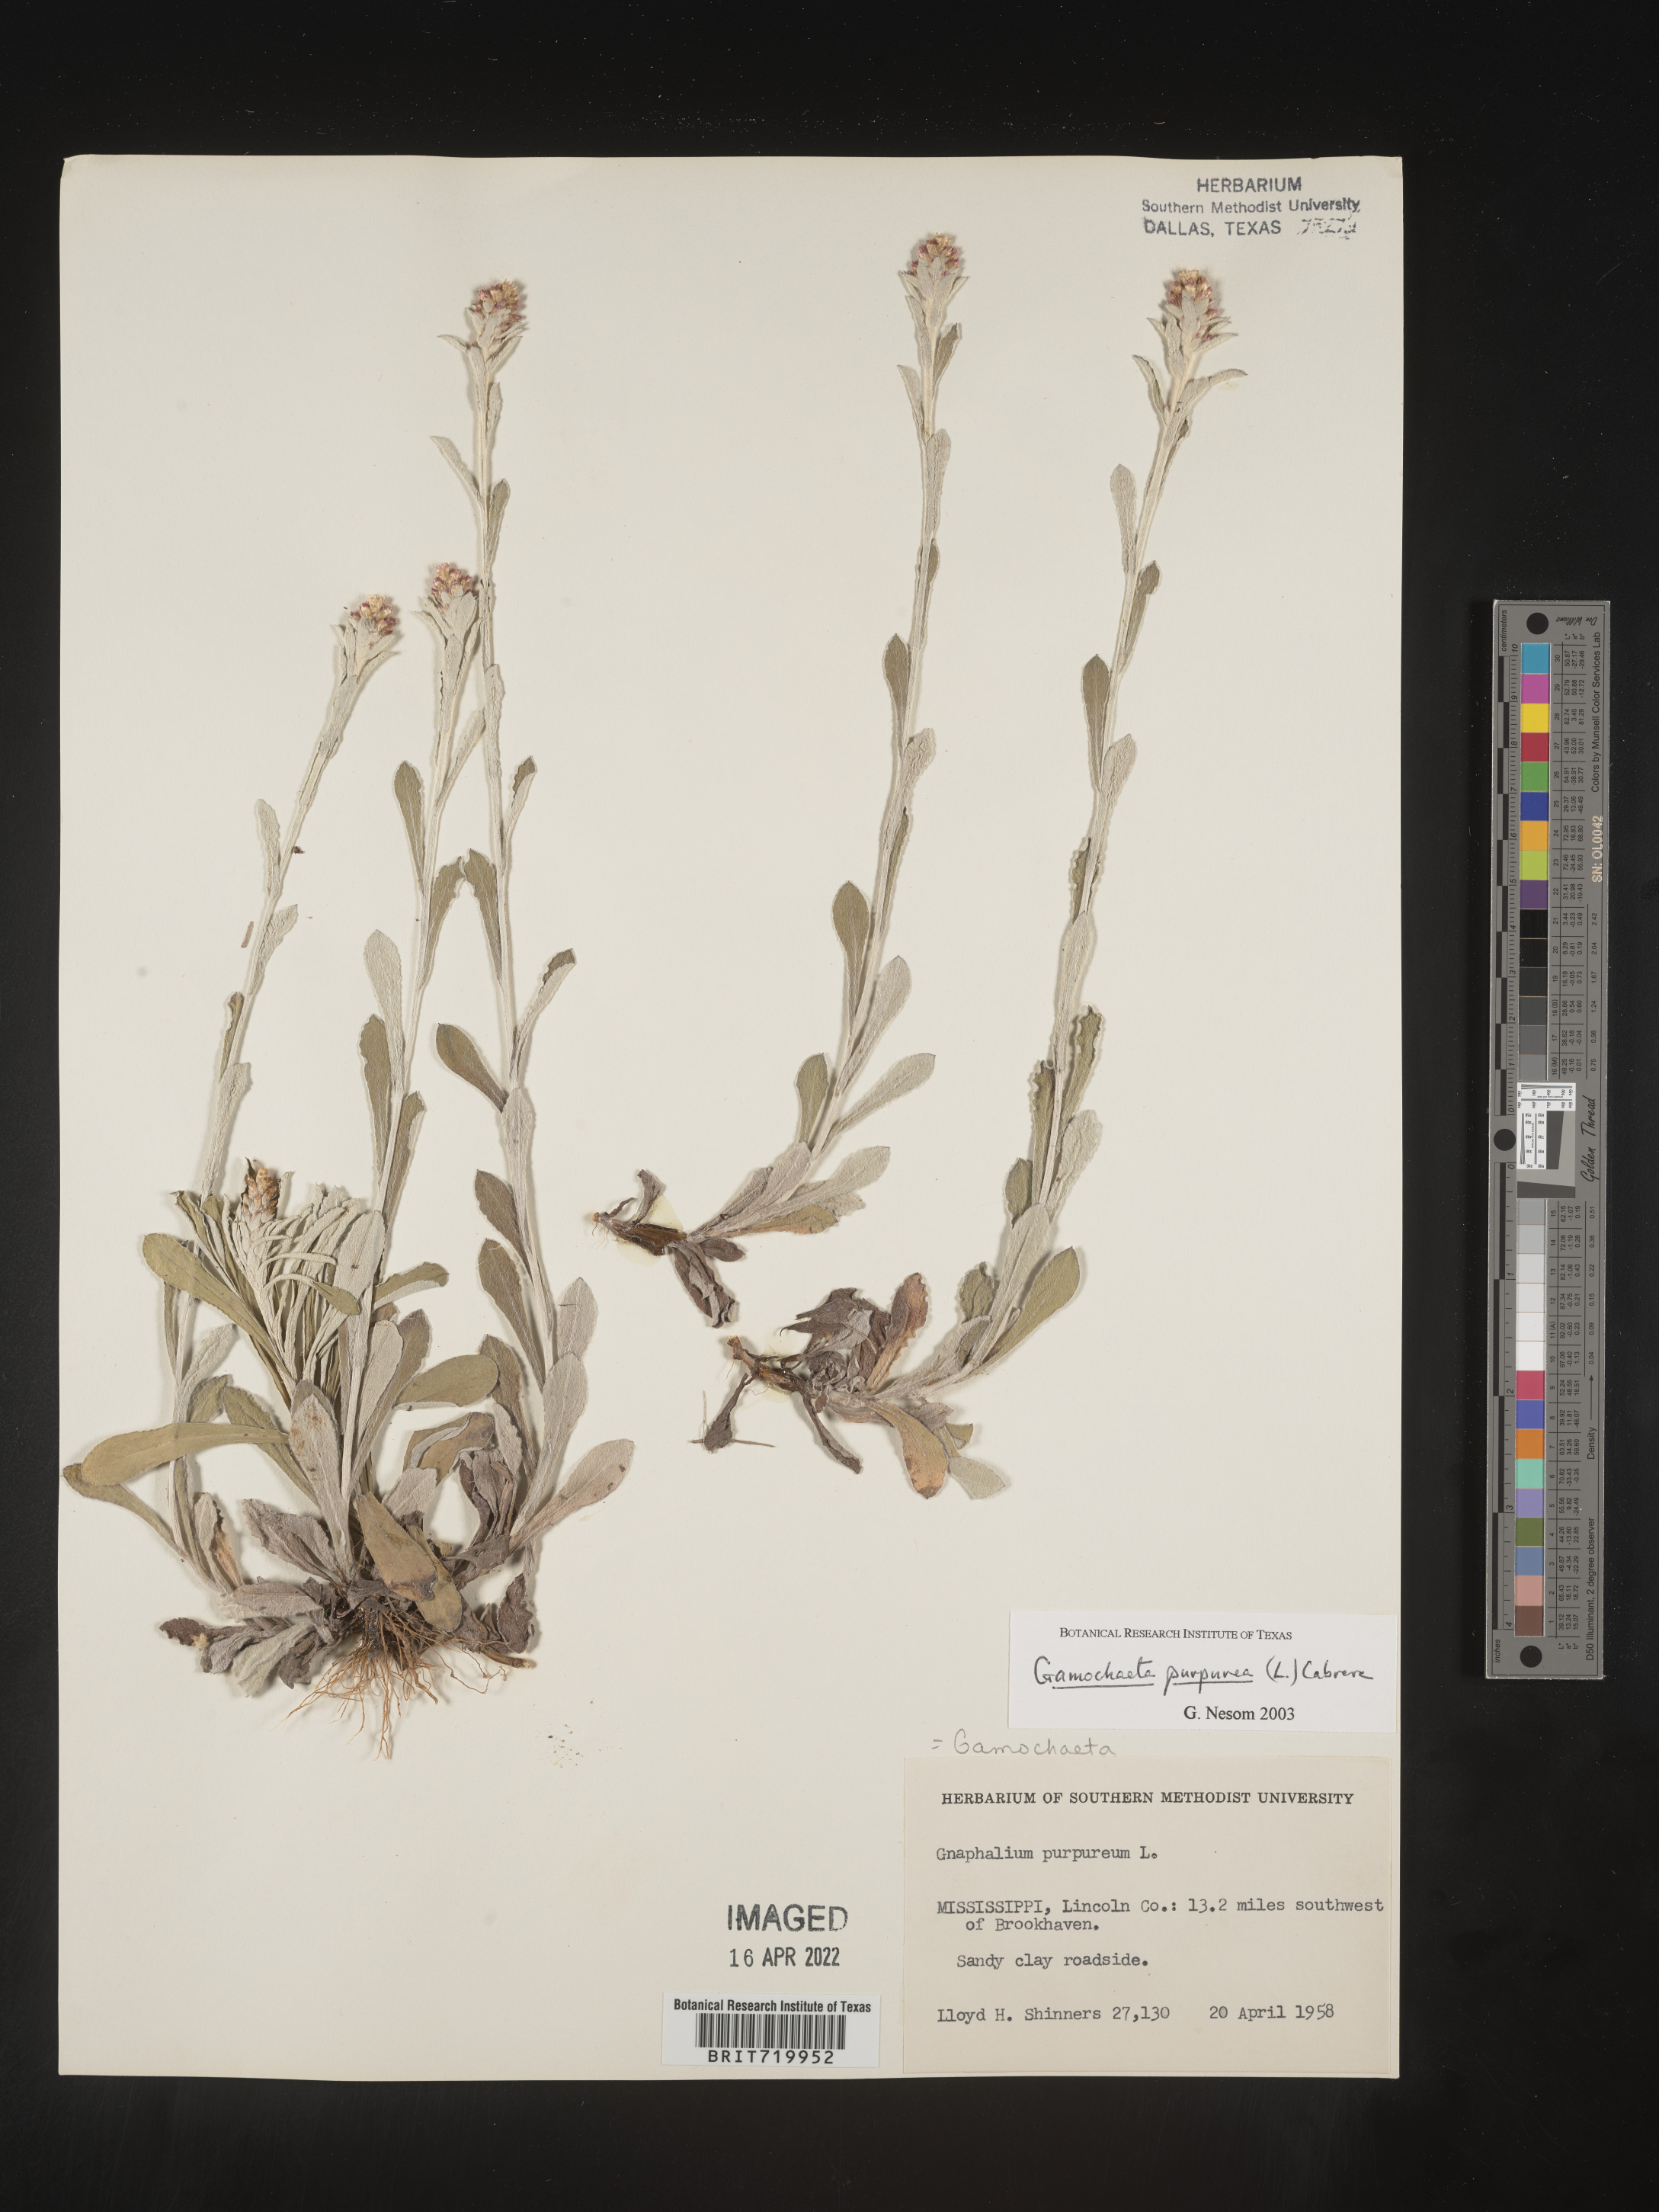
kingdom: Plantae
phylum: Tracheophyta
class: Magnoliopsida
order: Asterales
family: Asteraceae
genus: Gamochaeta
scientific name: Gamochaeta purpurea
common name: Purple cudweed
